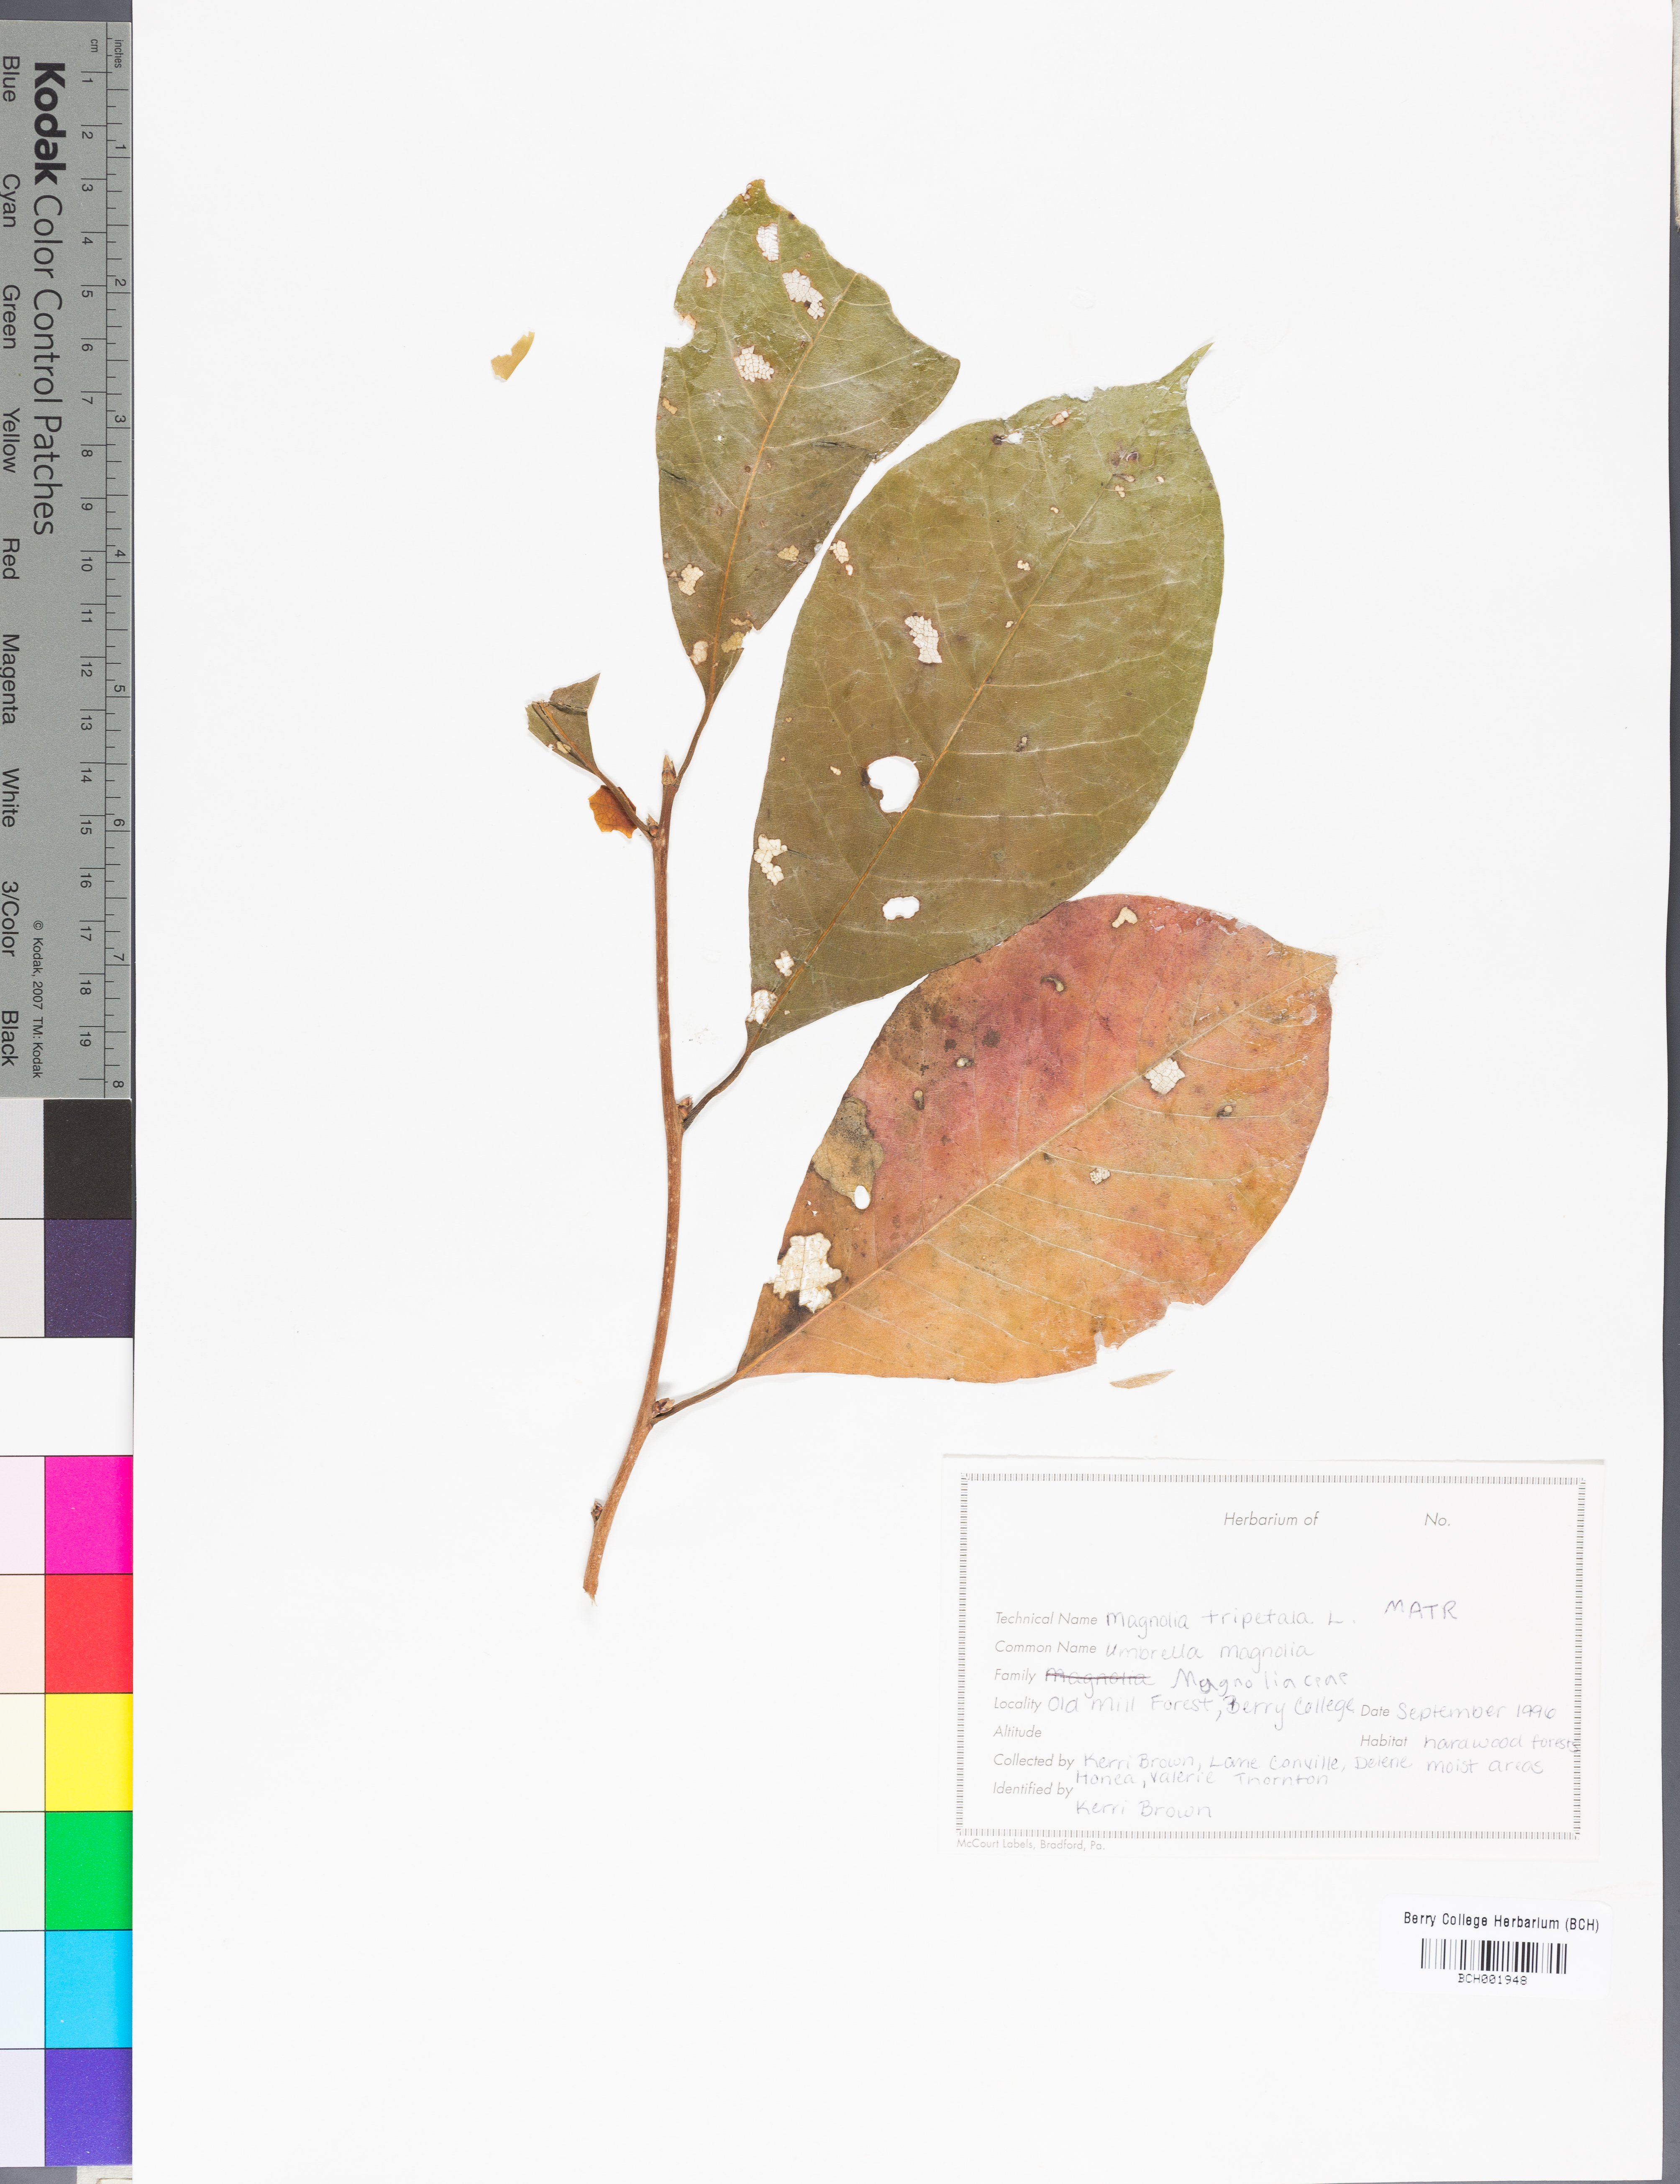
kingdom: Plantae
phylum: Tracheophyta
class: Magnoliopsida
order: Magnoliales
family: Magnoliaceae
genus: Magnolia
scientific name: Magnolia tripetala
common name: Umbrella magnolia
